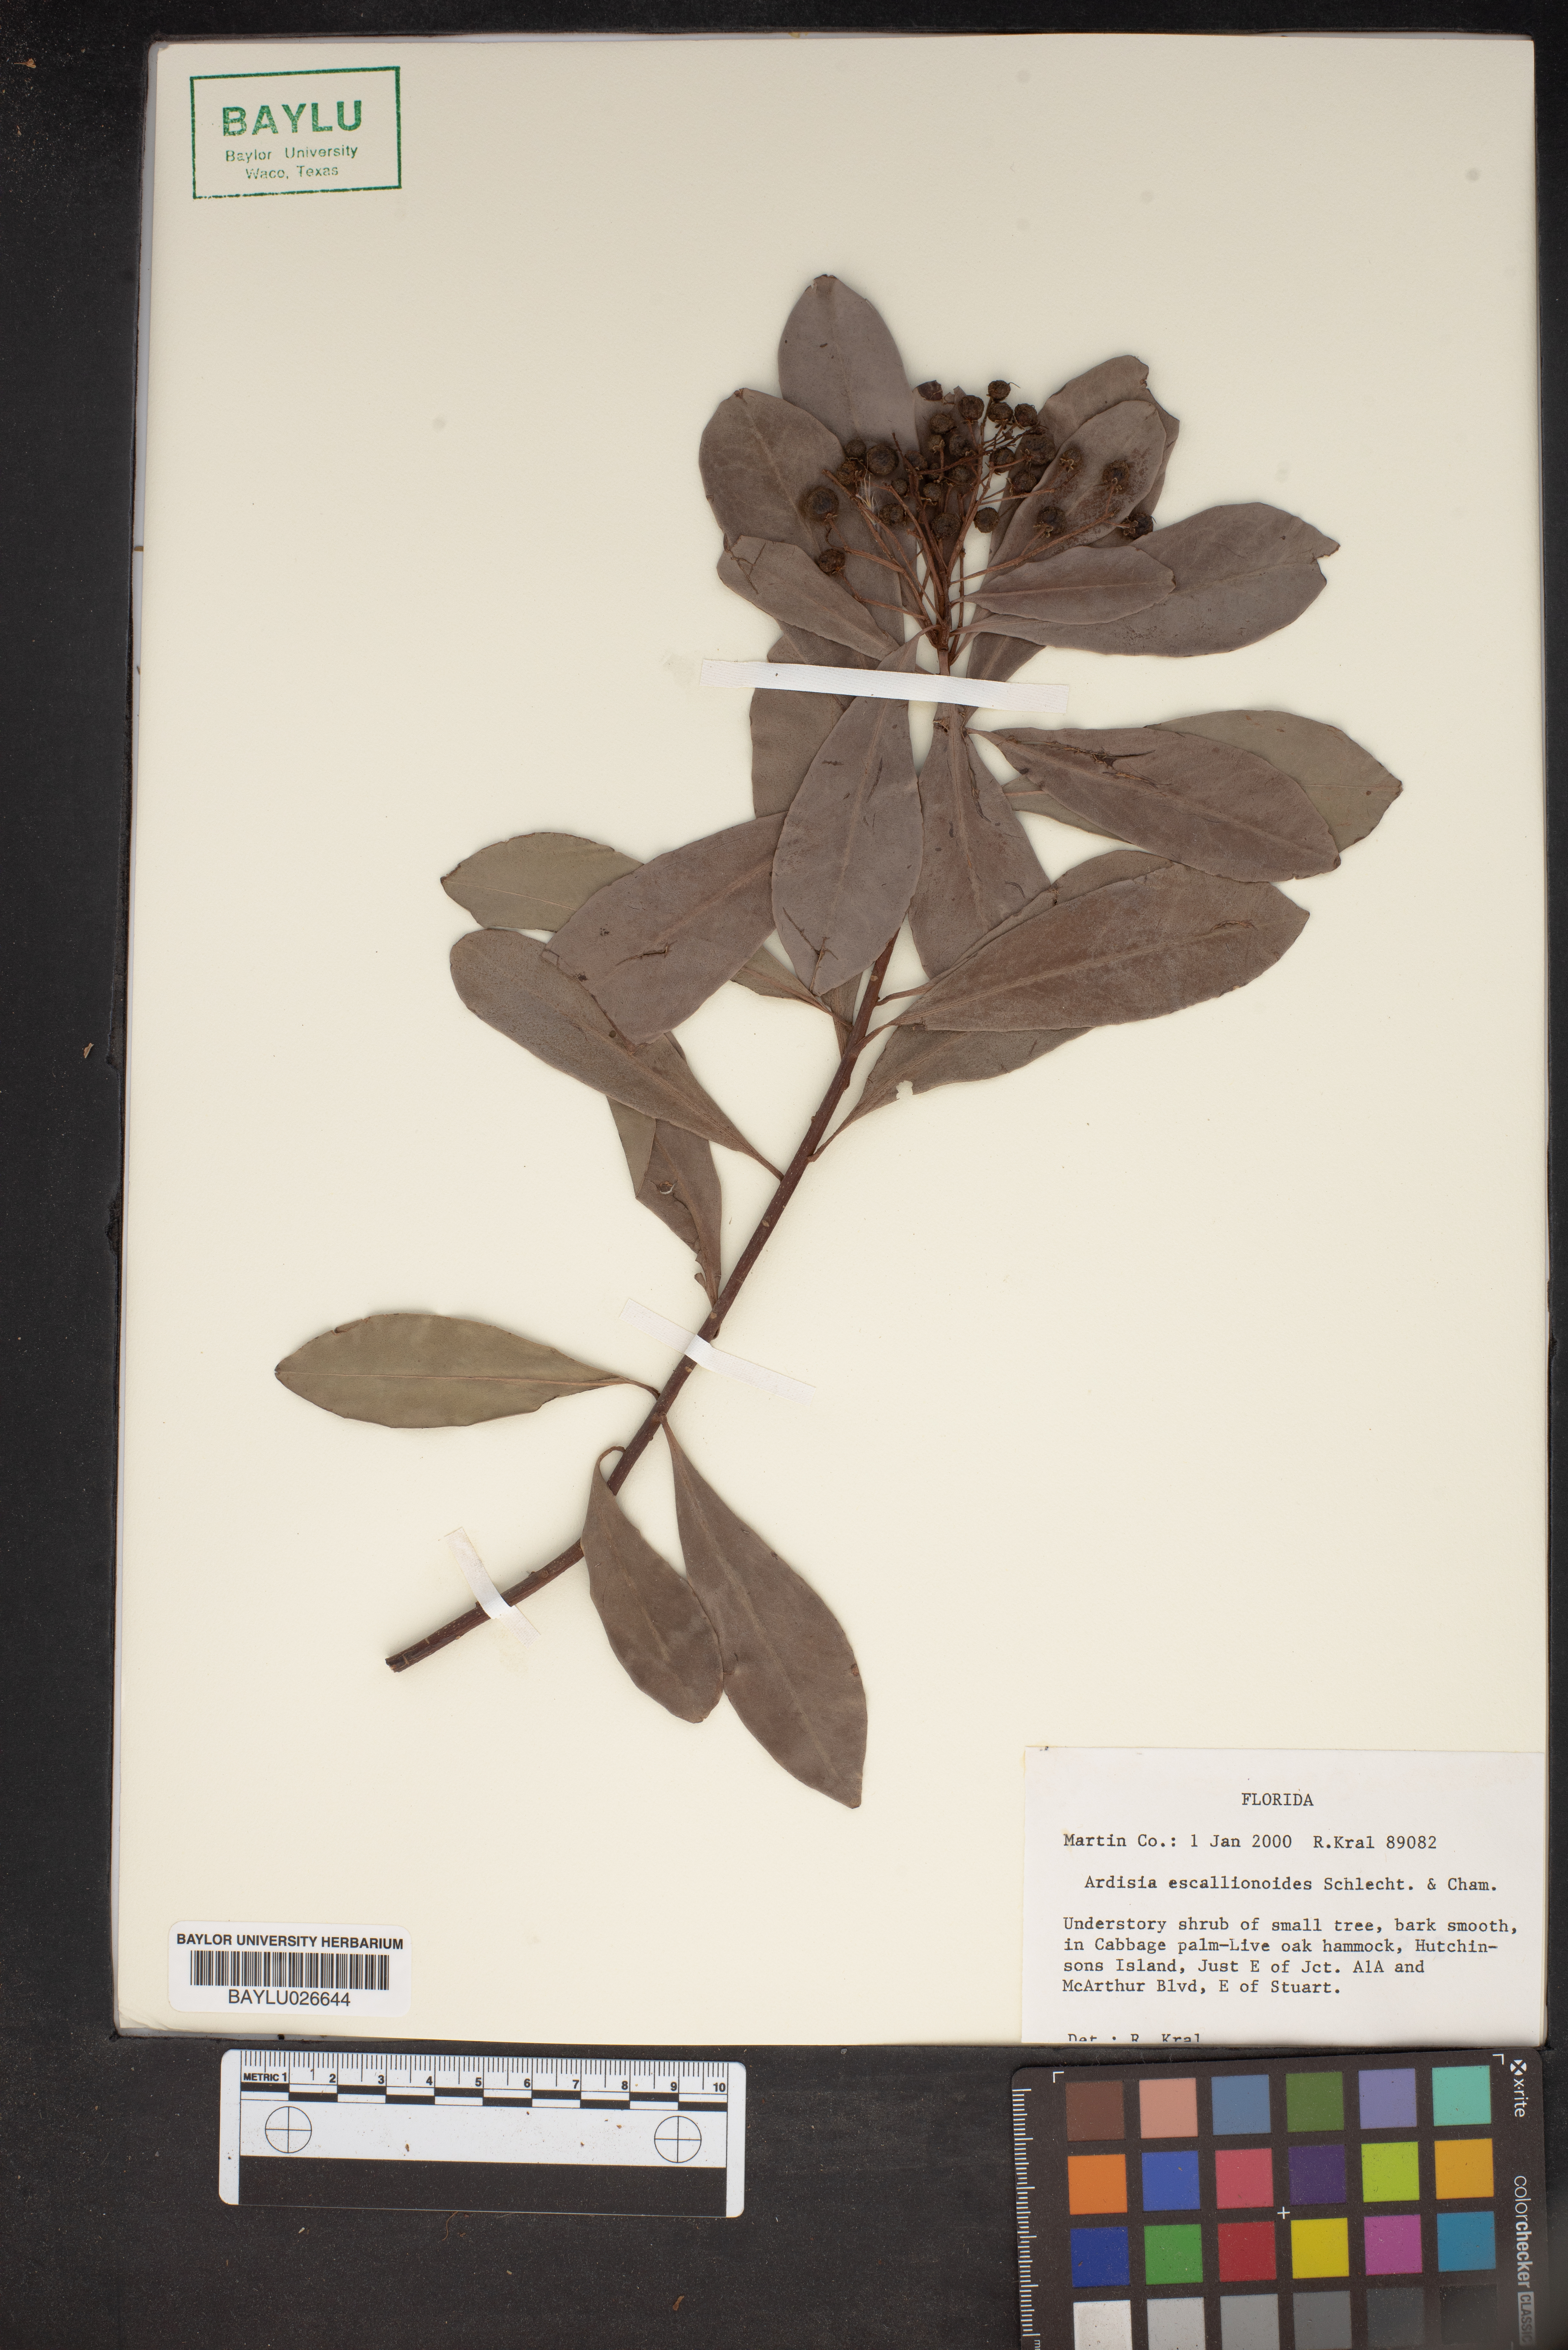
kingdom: Plantae
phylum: Tracheophyta
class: Magnoliopsida
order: Ericales
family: Primulaceae
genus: Ardisia
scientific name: Ardisia escallonioides
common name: Island marlberry
